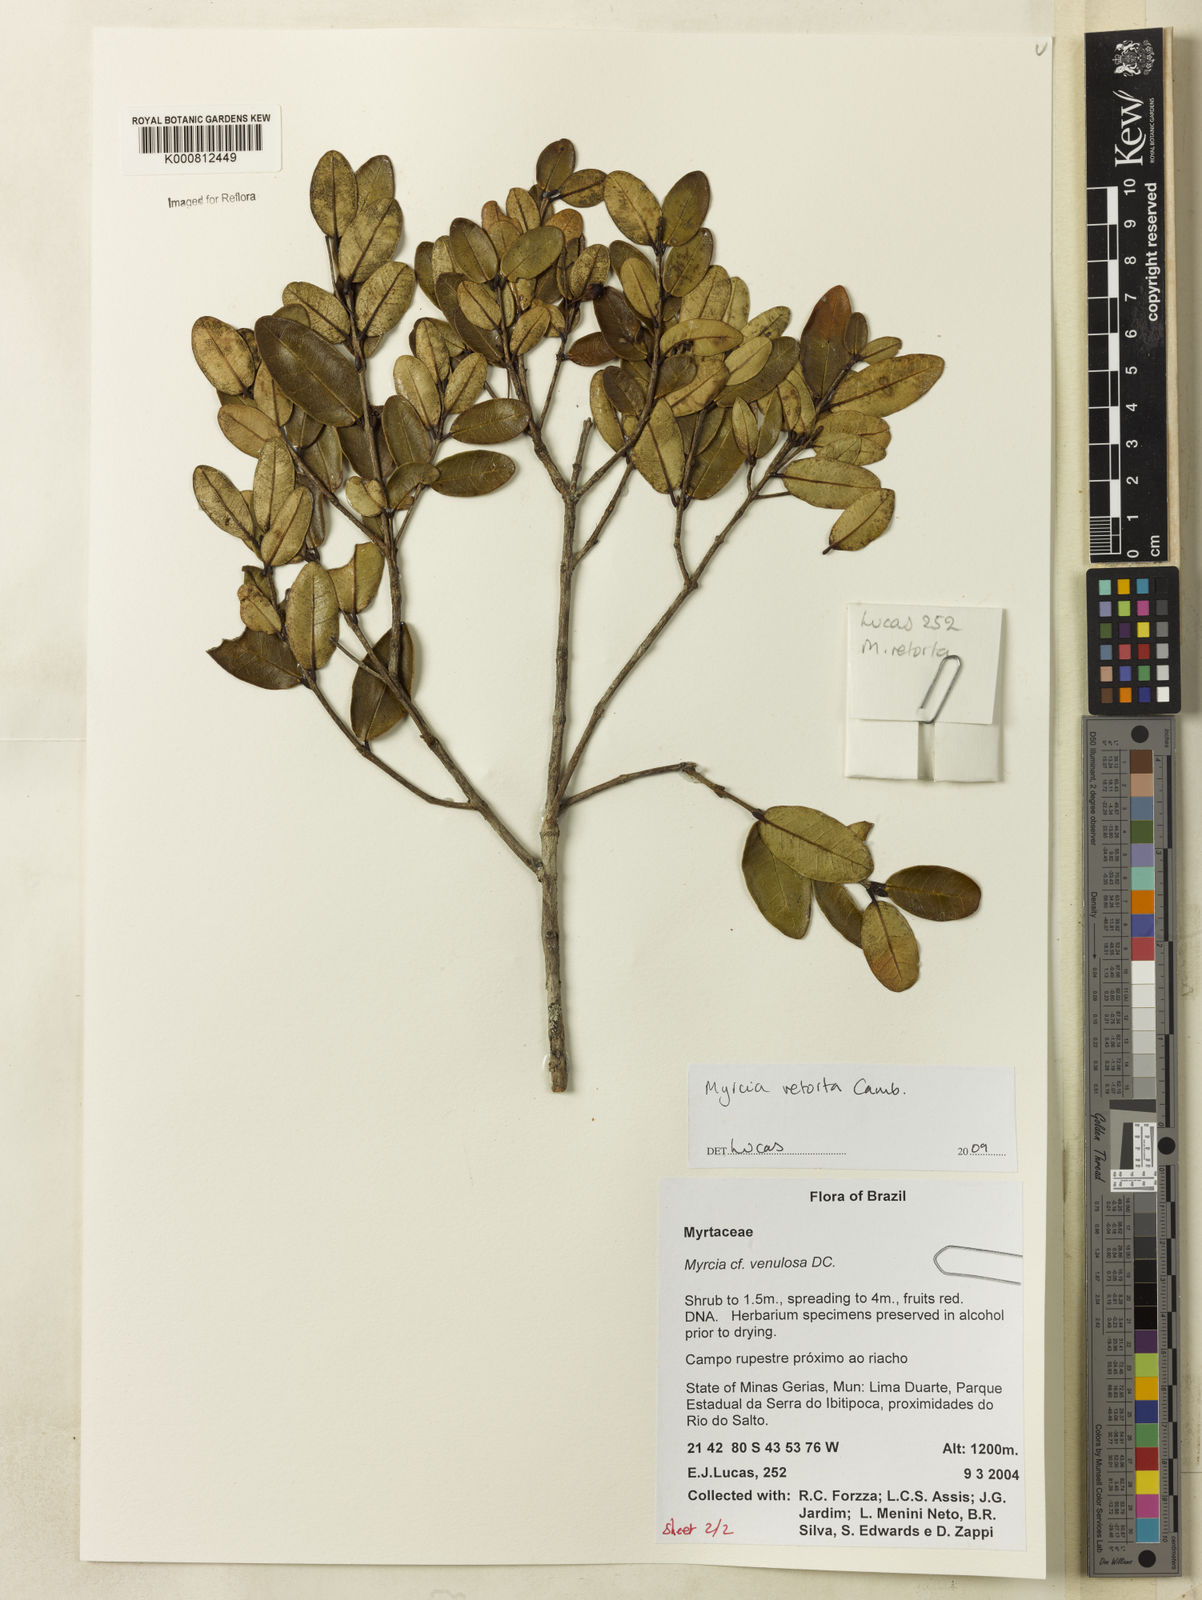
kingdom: Plantae
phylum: Tracheophyta
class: Magnoliopsida
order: Myrtales
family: Myrtaceae
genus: Myrcia
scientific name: Myrcia venulosa
